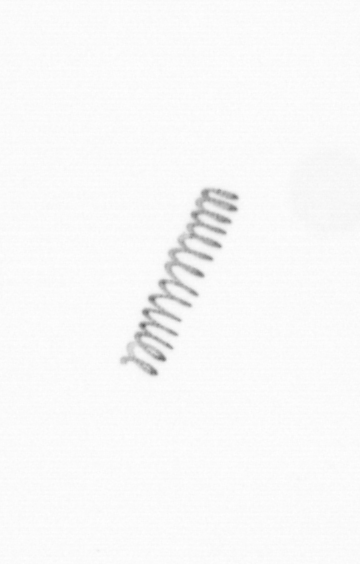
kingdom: Chromista
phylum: Ochrophyta
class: Bacillariophyceae
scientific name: Bacillariophyceae
